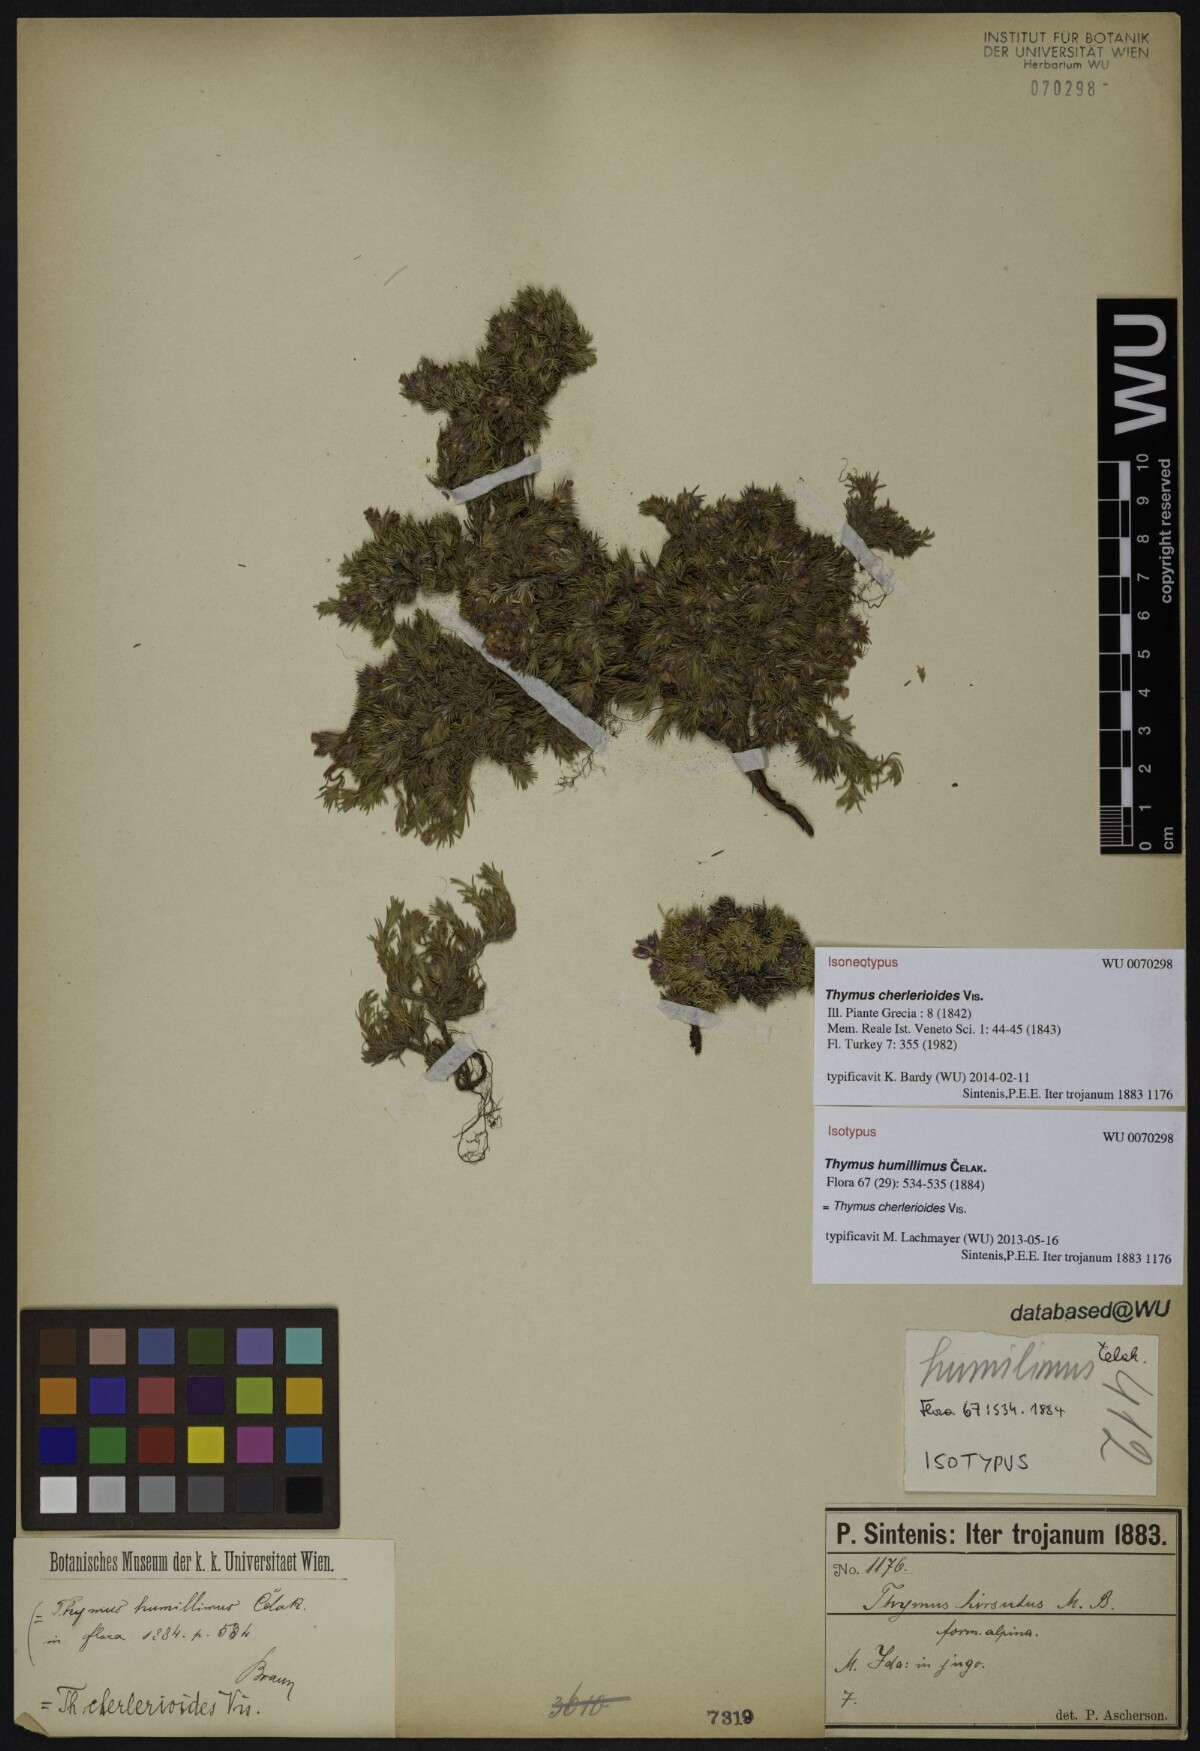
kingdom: Plantae
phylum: Tracheophyta
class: Magnoliopsida
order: Lamiales
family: Lamiaceae
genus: Thymus
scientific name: Thymus cherlerioides
